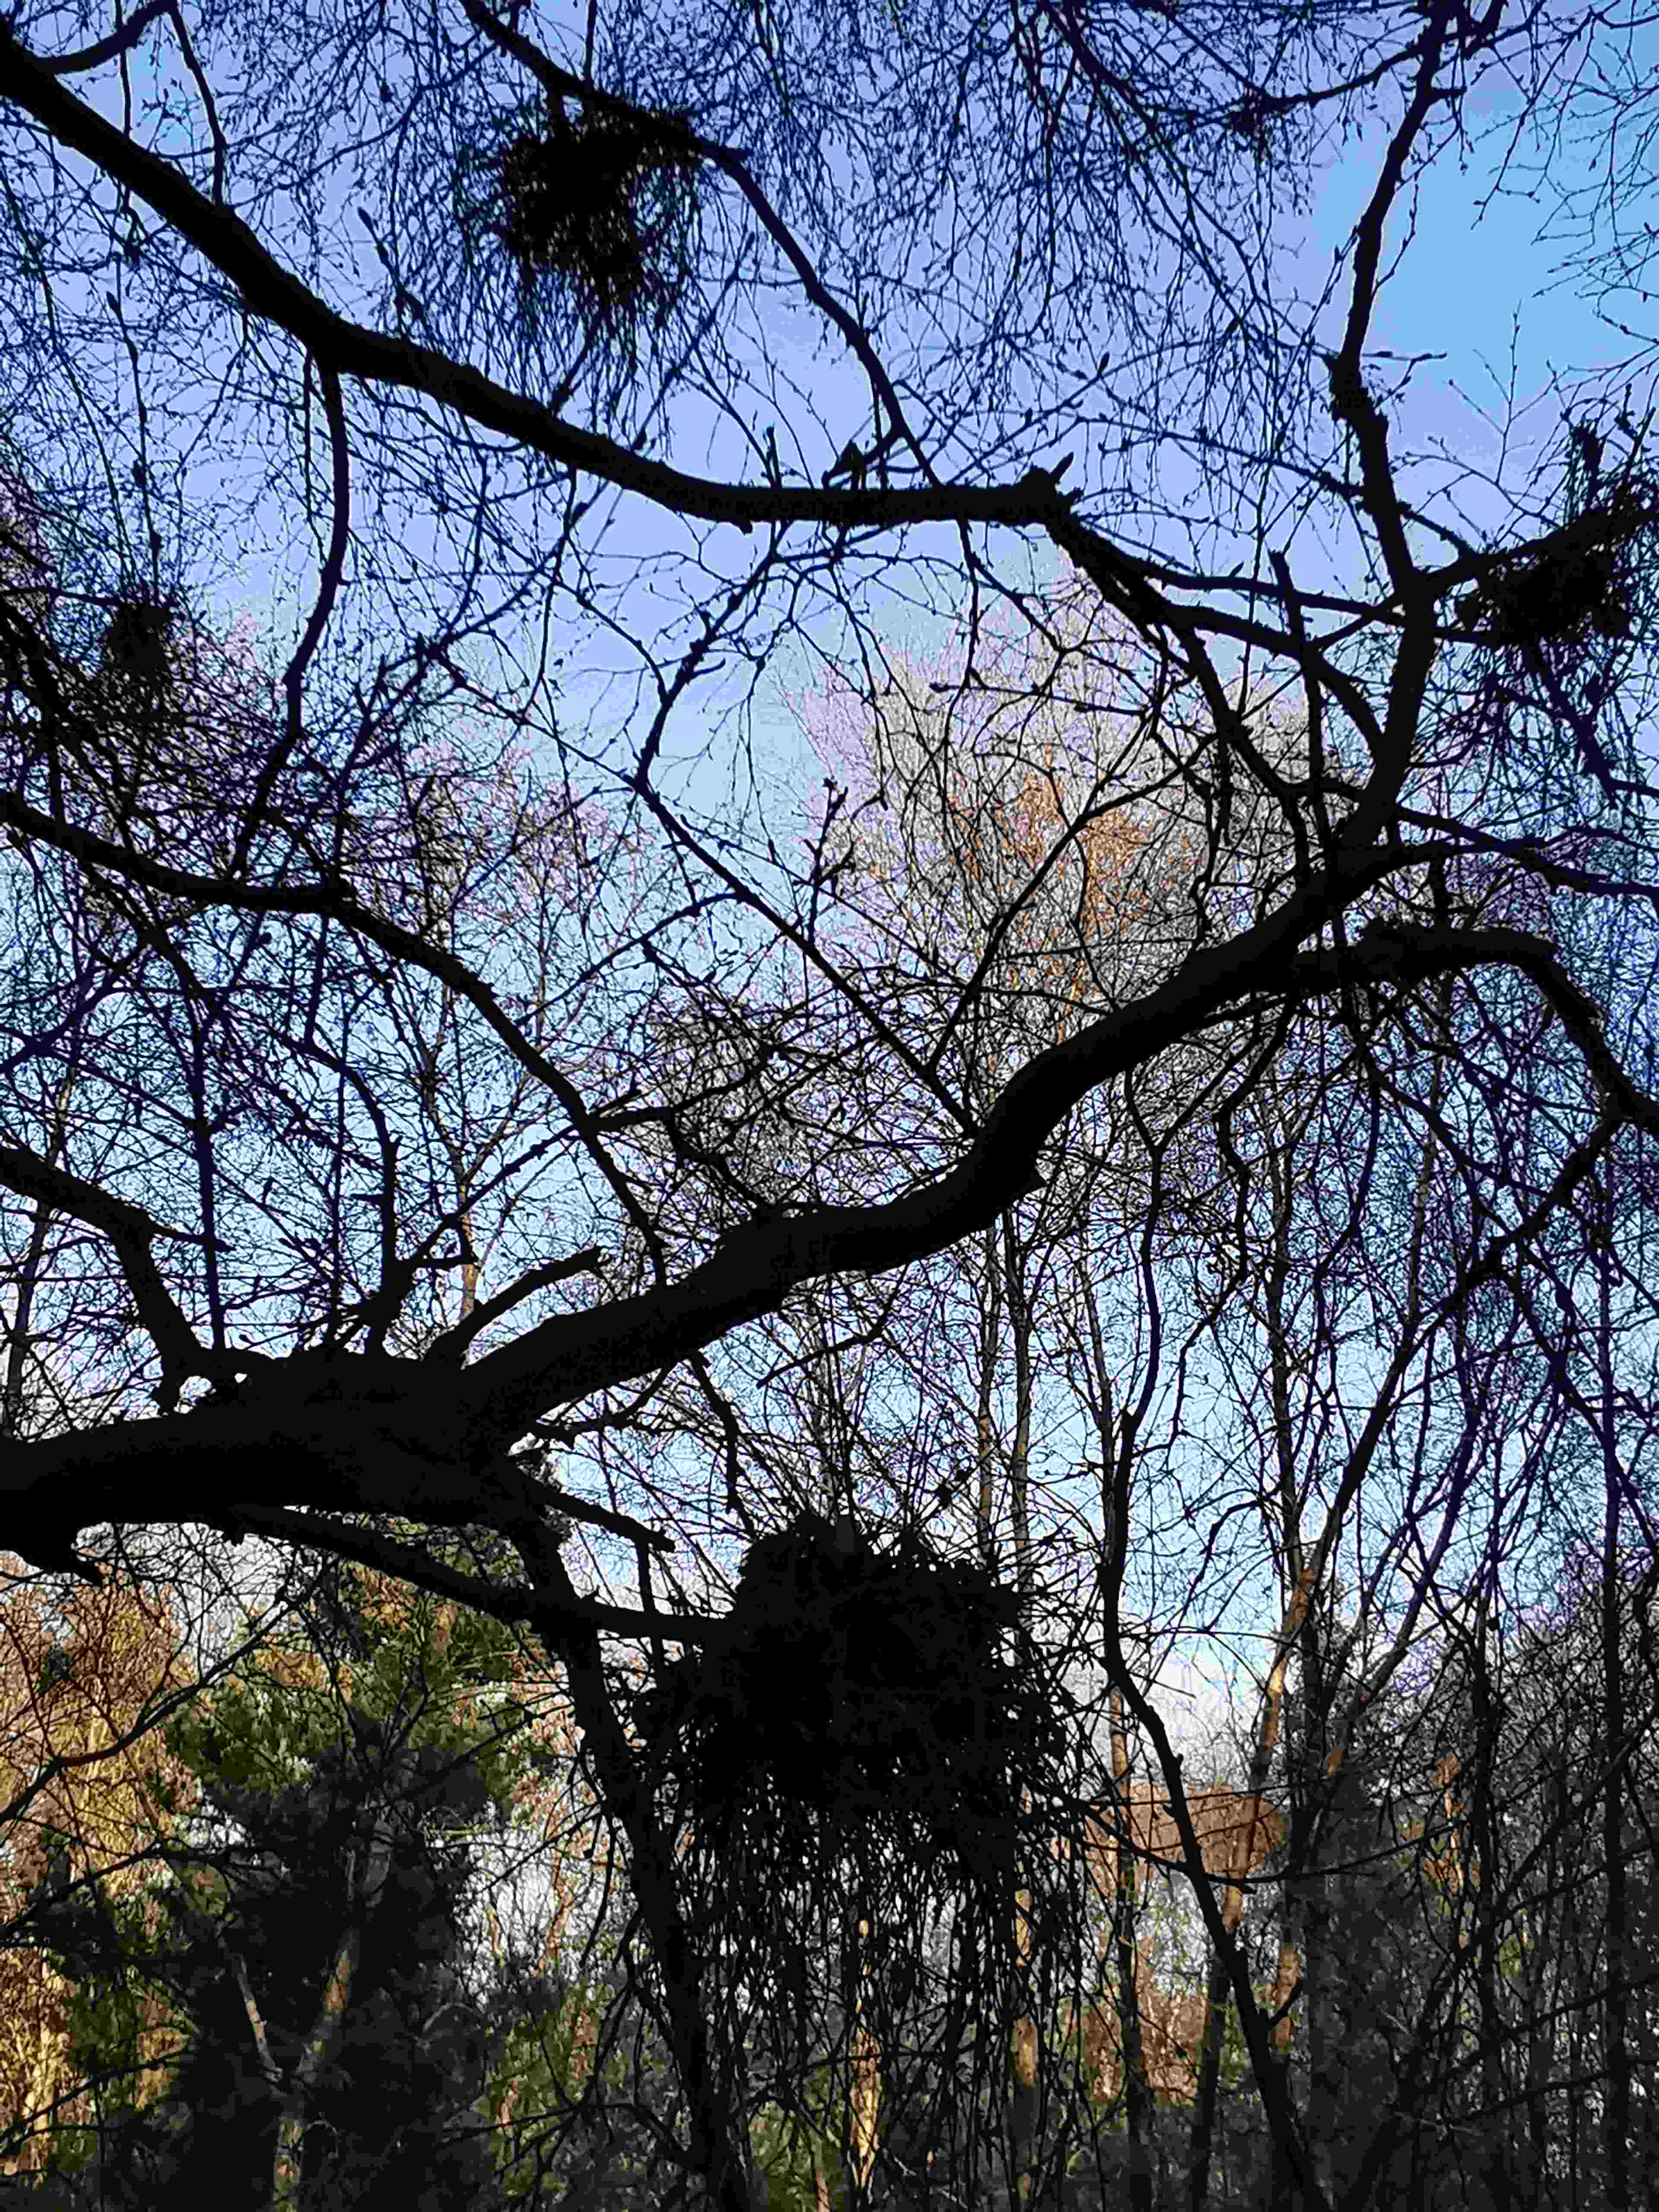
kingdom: Fungi
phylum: Ascomycota
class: Taphrinomycetes
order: Taphrinales
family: Taphrinaceae
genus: Taphrina
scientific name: Taphrina betulina
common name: hekse-sækdug
